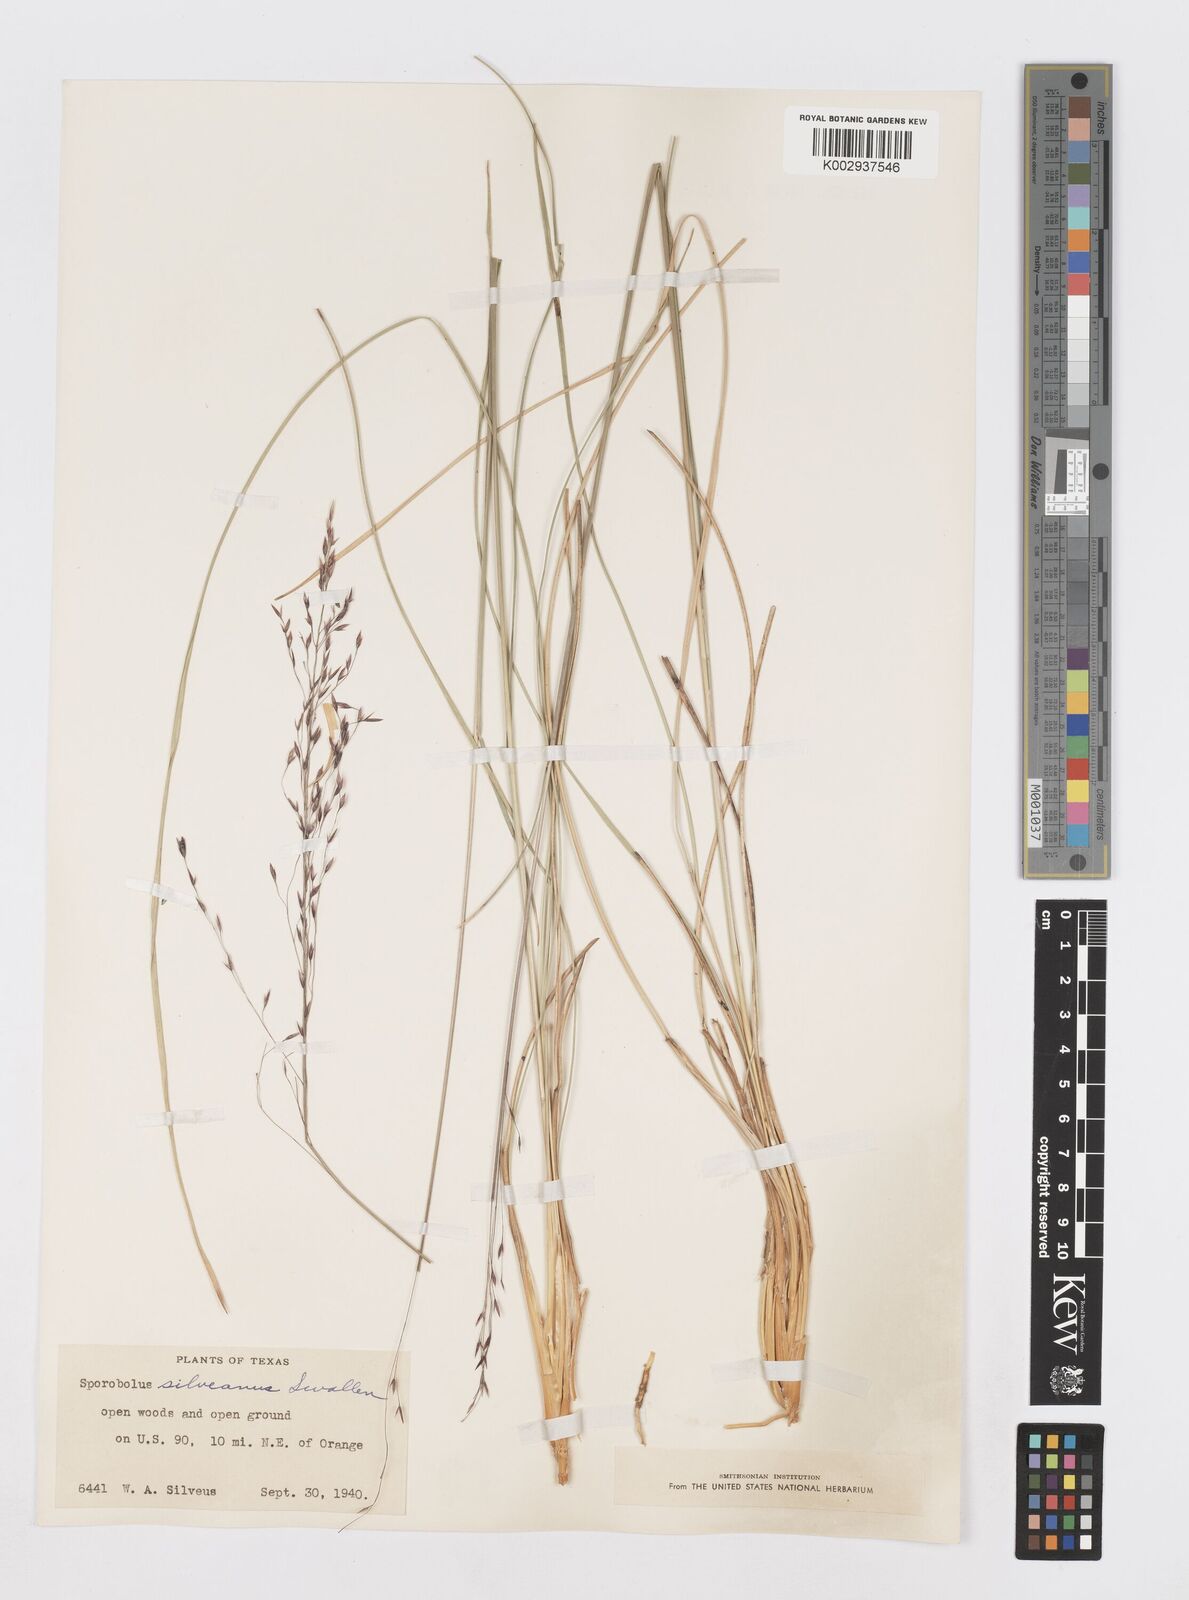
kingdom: Plantae
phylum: Tracheophyta
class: Liliopsida
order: Poales
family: Poaceae
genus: Sporobolus
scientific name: Sporobolus silveanus
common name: Silveus's dropseed
